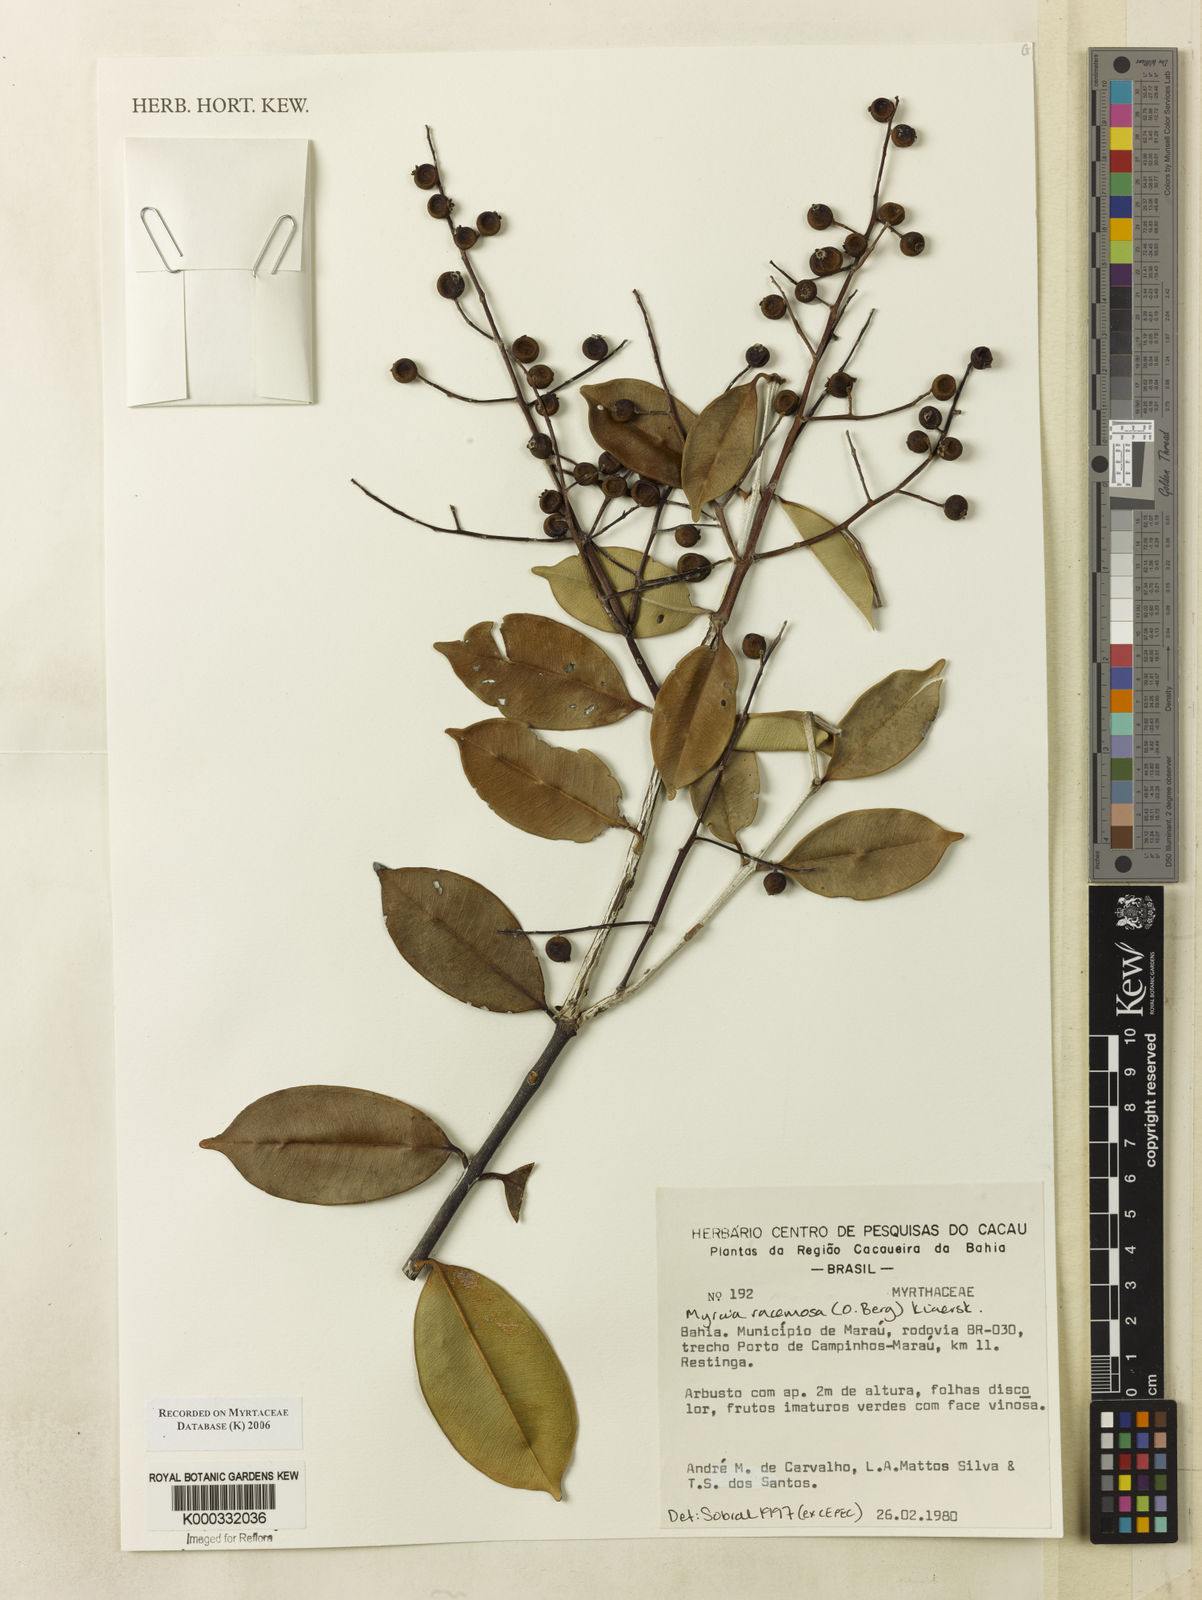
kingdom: Plantae
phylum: Tracheophyta
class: Magnoliopsida
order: Myrtales
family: Myrtaceae
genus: Myrcia
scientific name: Myrcia
